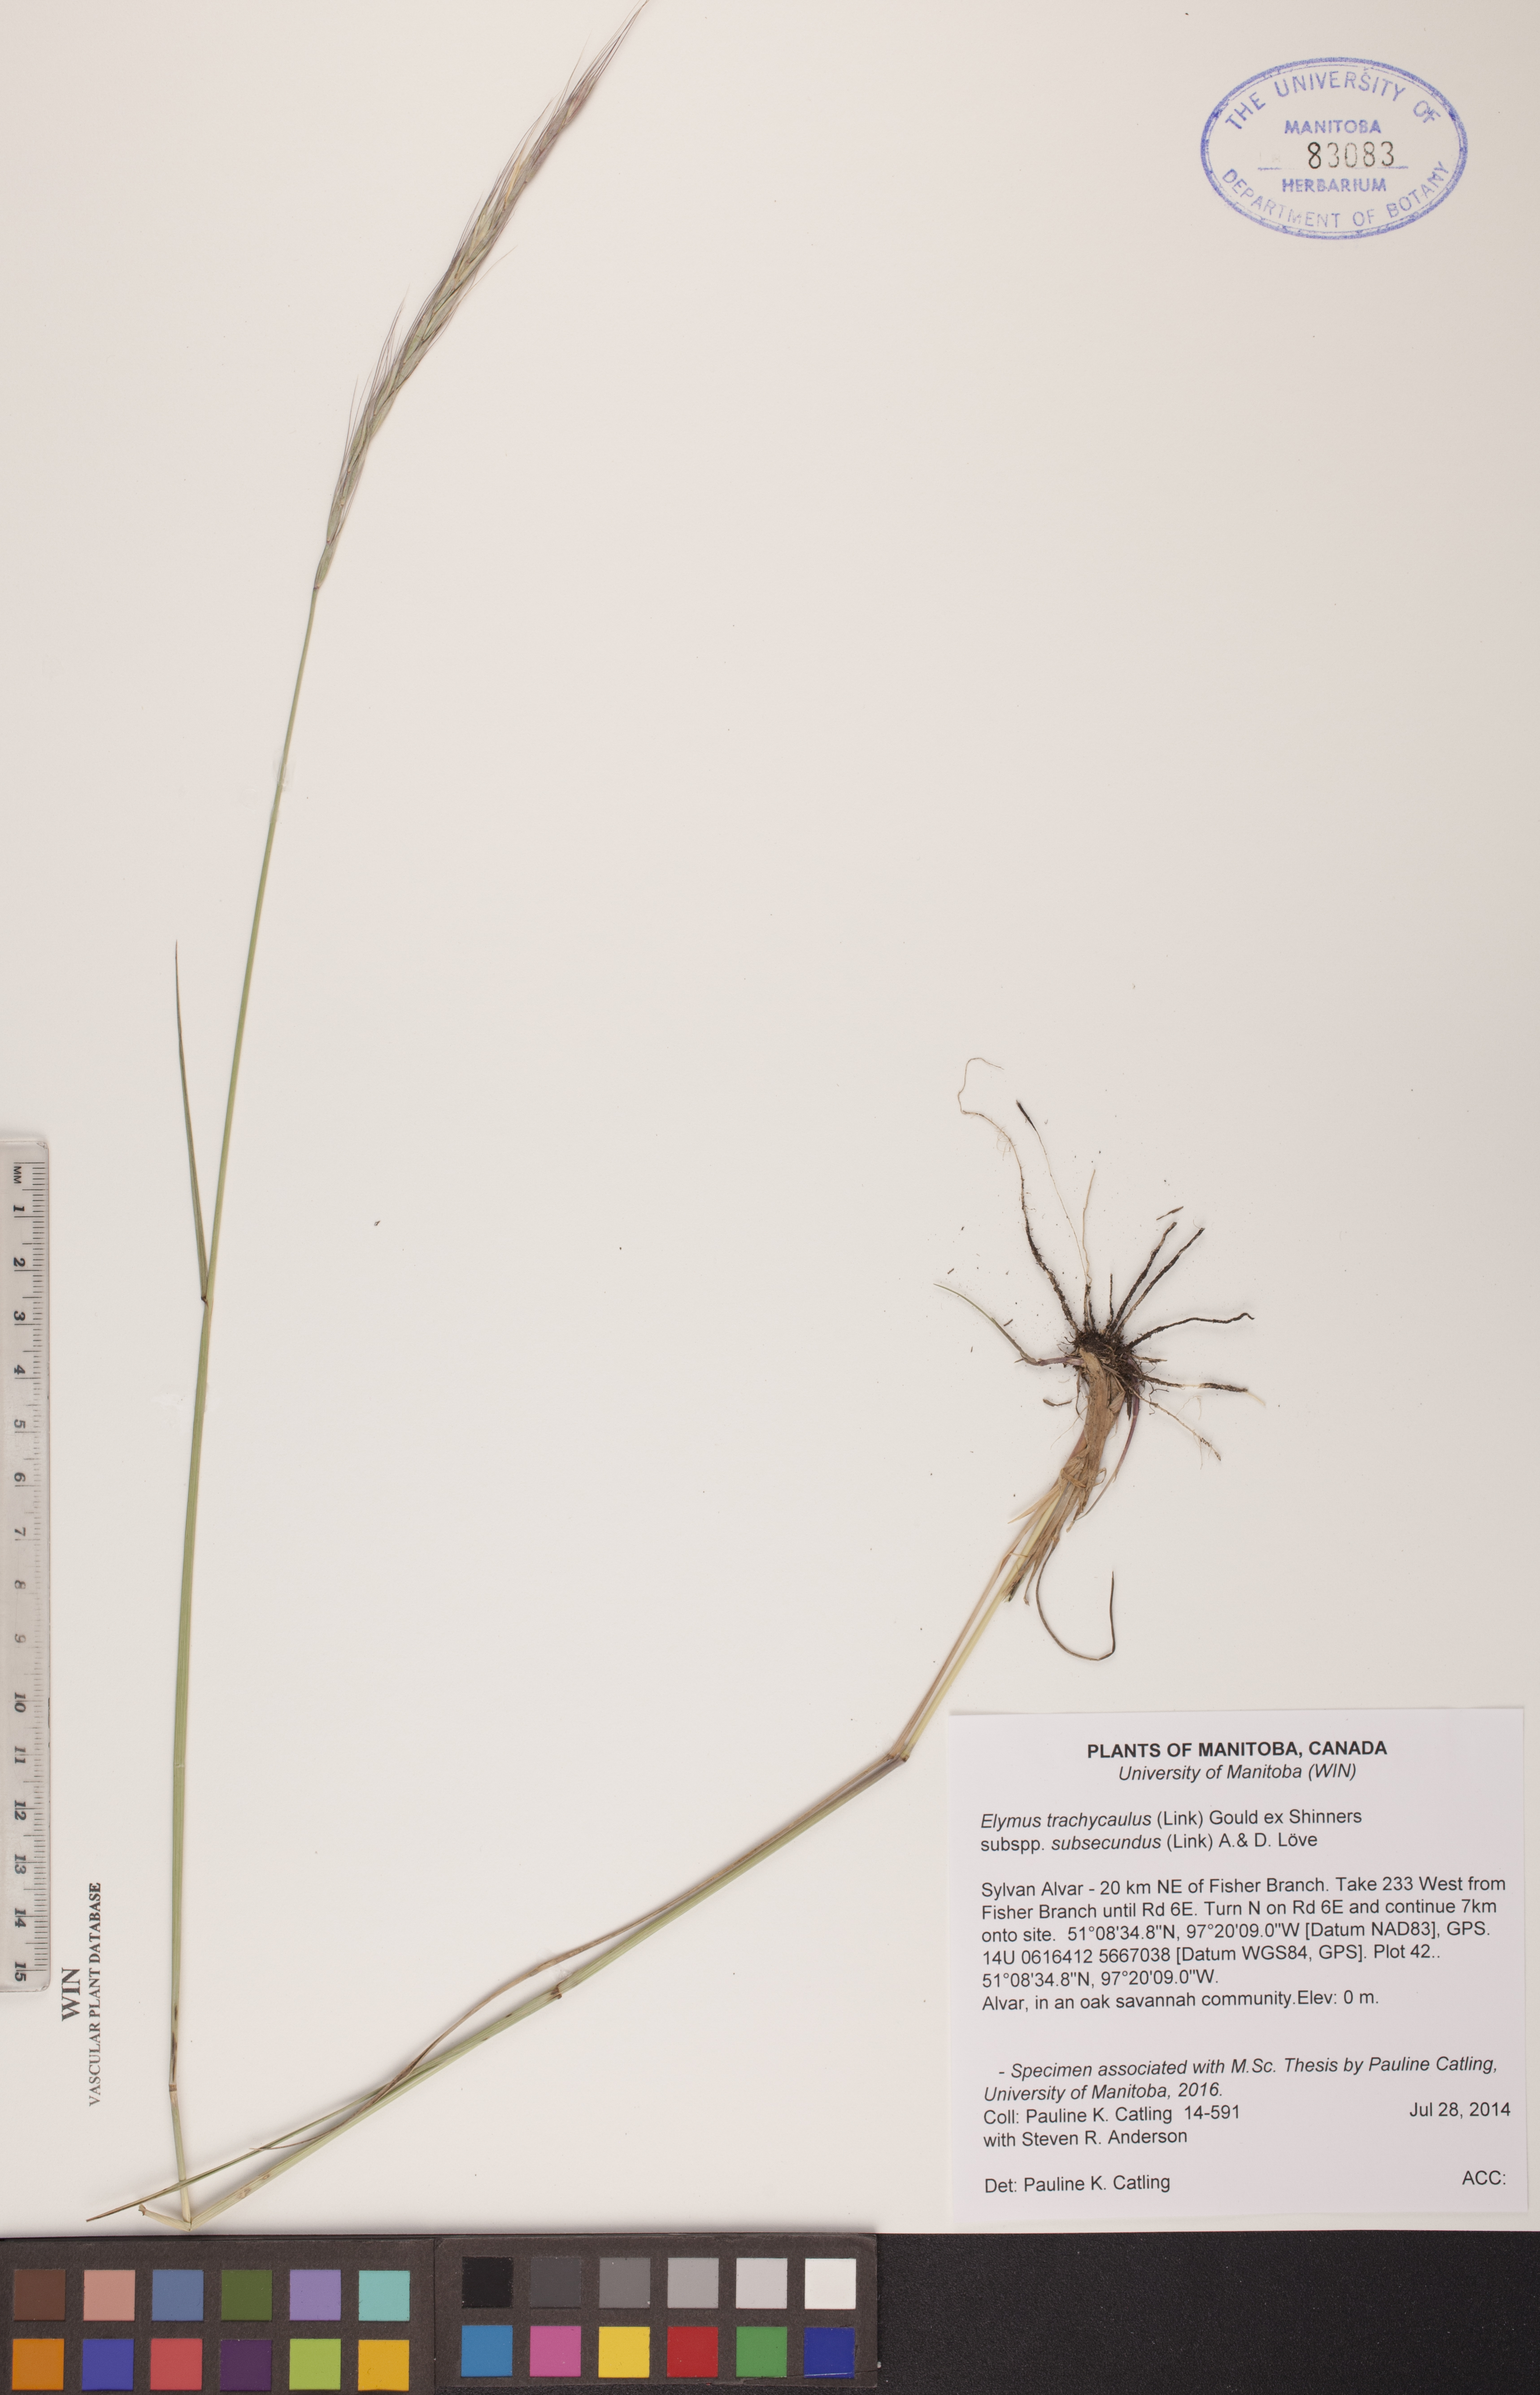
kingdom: Plantae
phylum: Tracheophyta
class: Liliopsida
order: Poales
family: Poaceae
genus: Elymus
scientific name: Elymus violaceus
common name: Arctic wheatgrass
